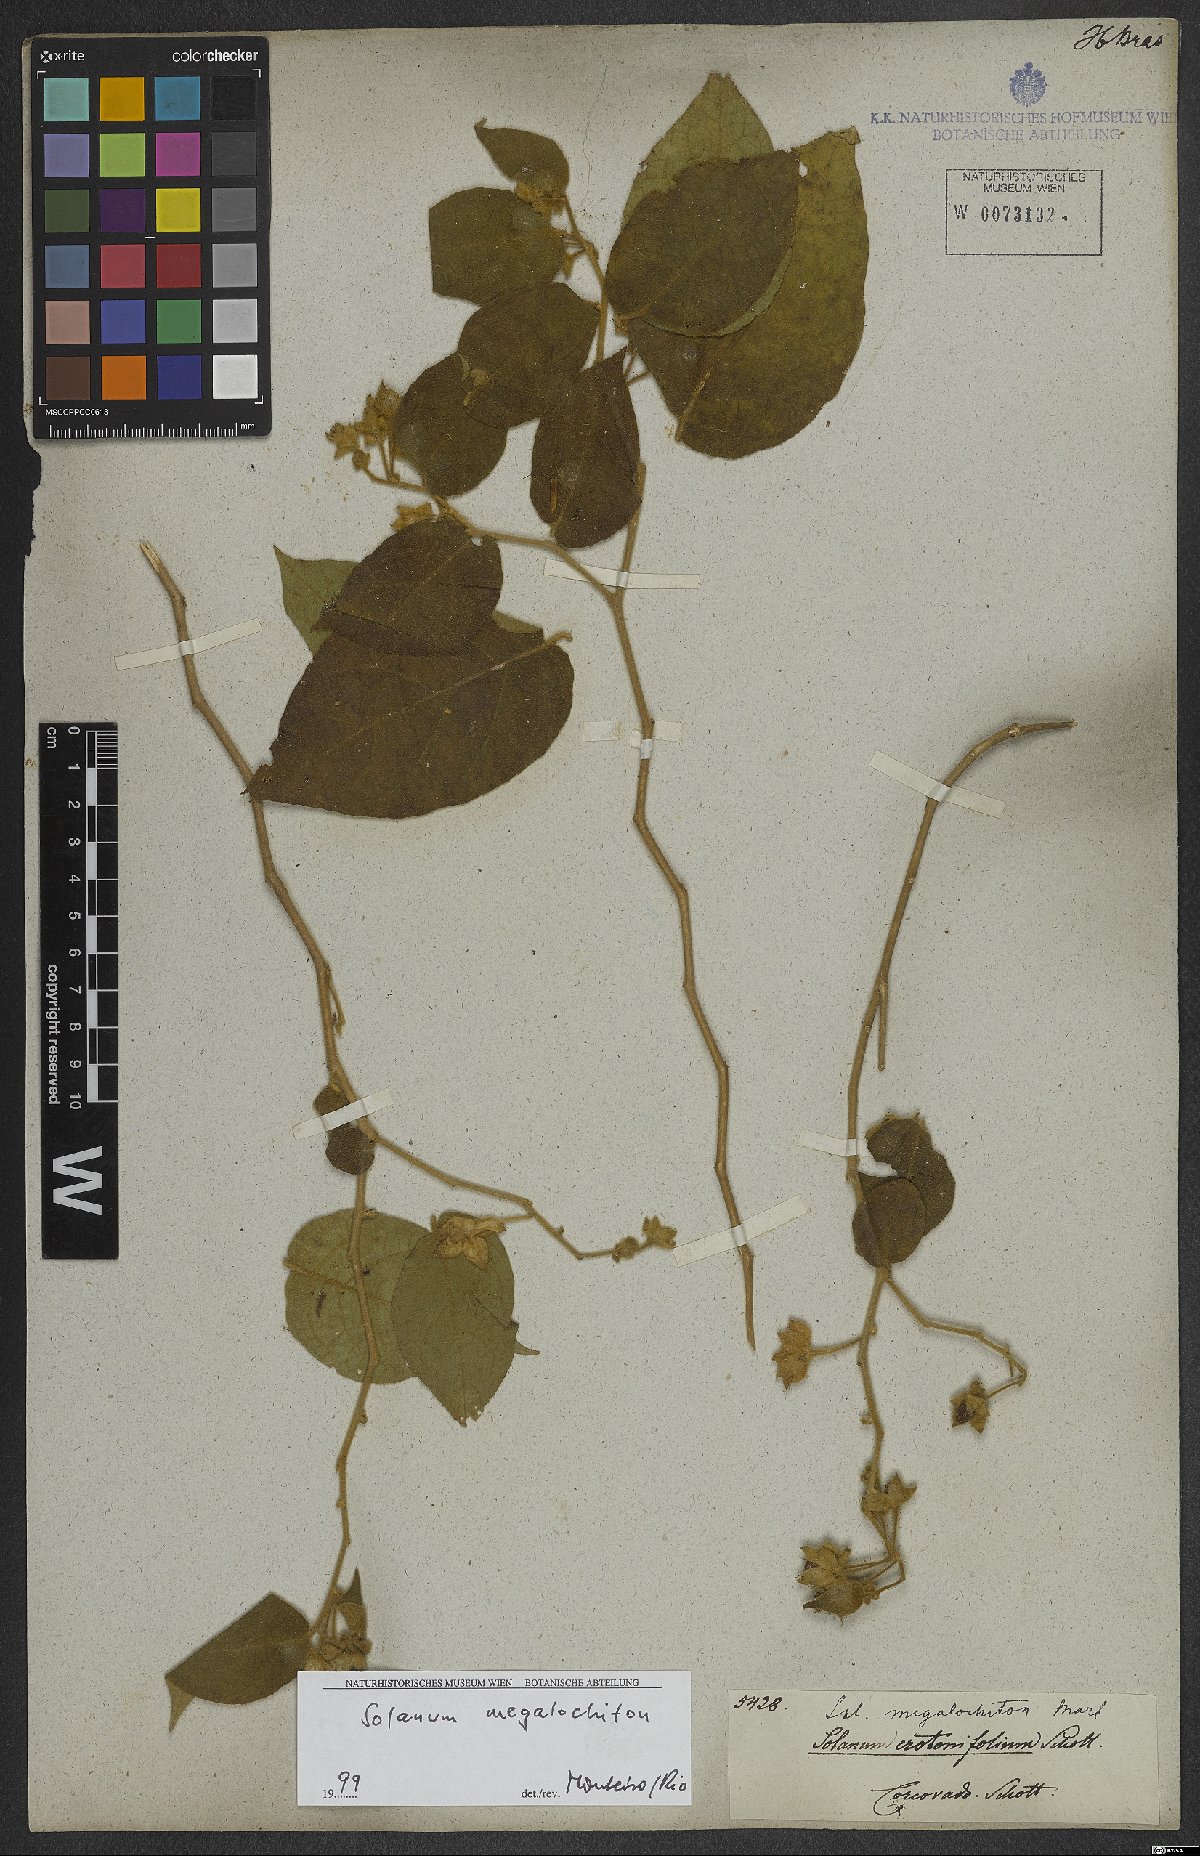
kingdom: Plantae
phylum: Tracheophyta
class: Magnoliopsida
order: Solanales
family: Solanaceae
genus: Solanum
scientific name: Solanum megalochiton
